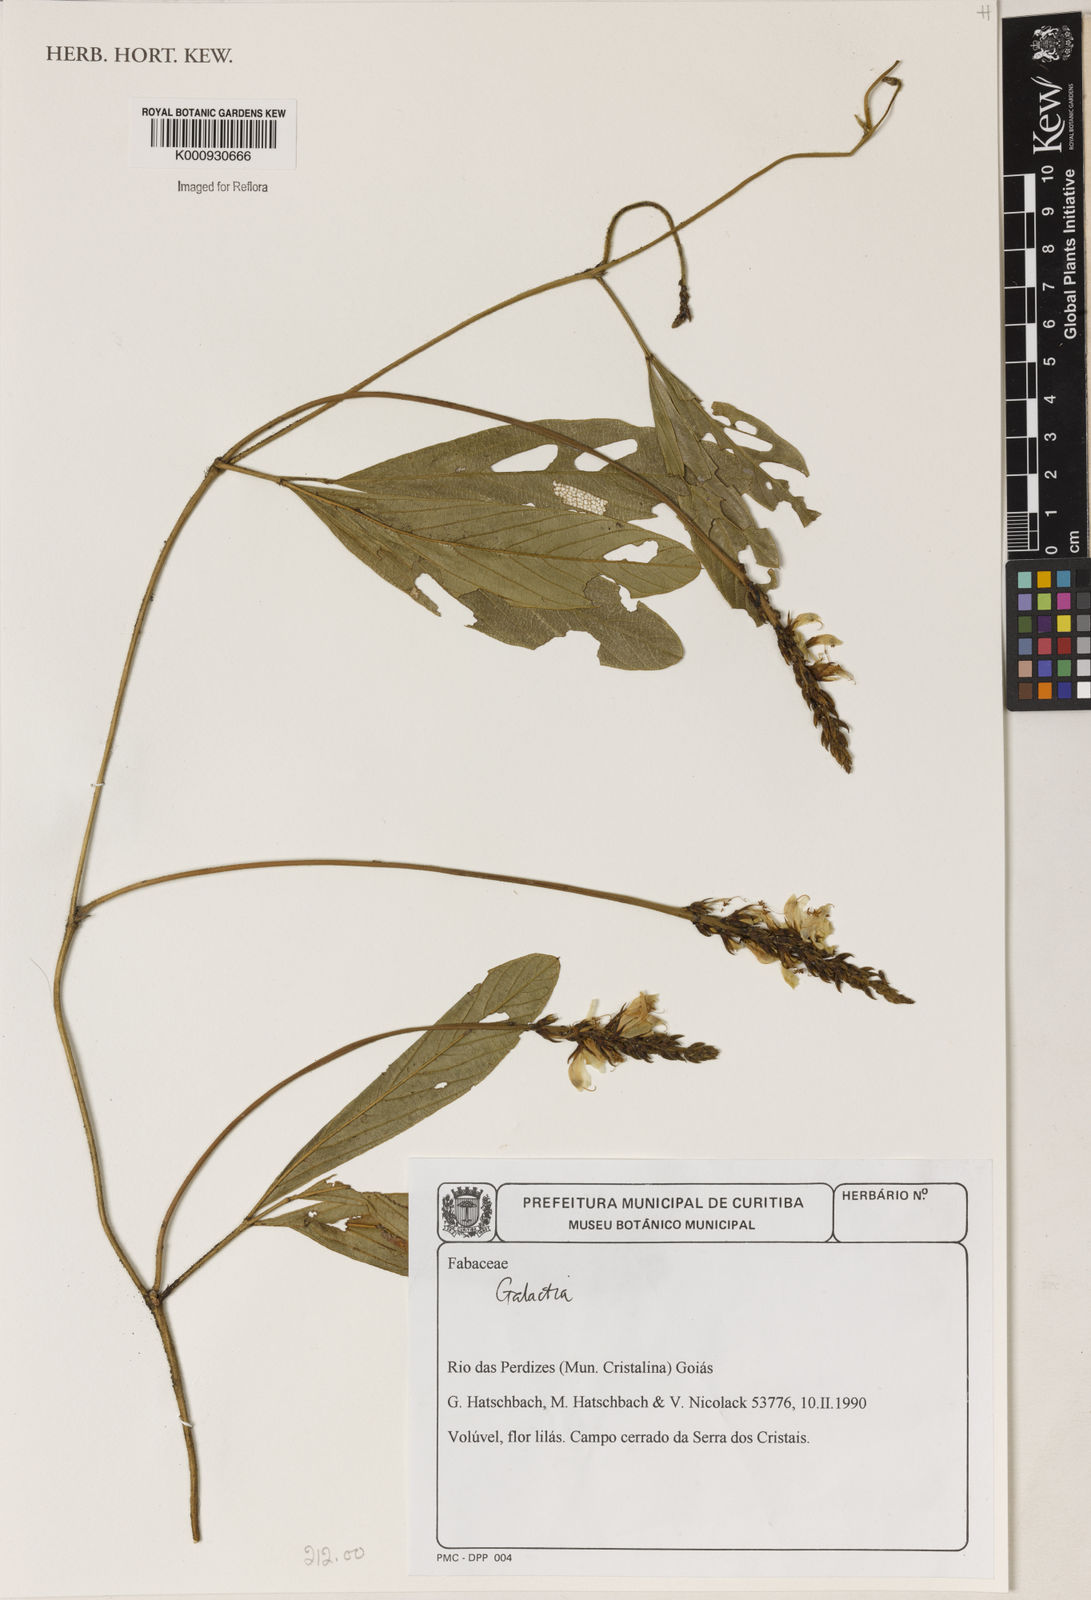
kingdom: Plantae
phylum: Tracheophyta
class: Magnoliopsida
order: Fabales
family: Fabaceae
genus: Galactia
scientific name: Galactia
